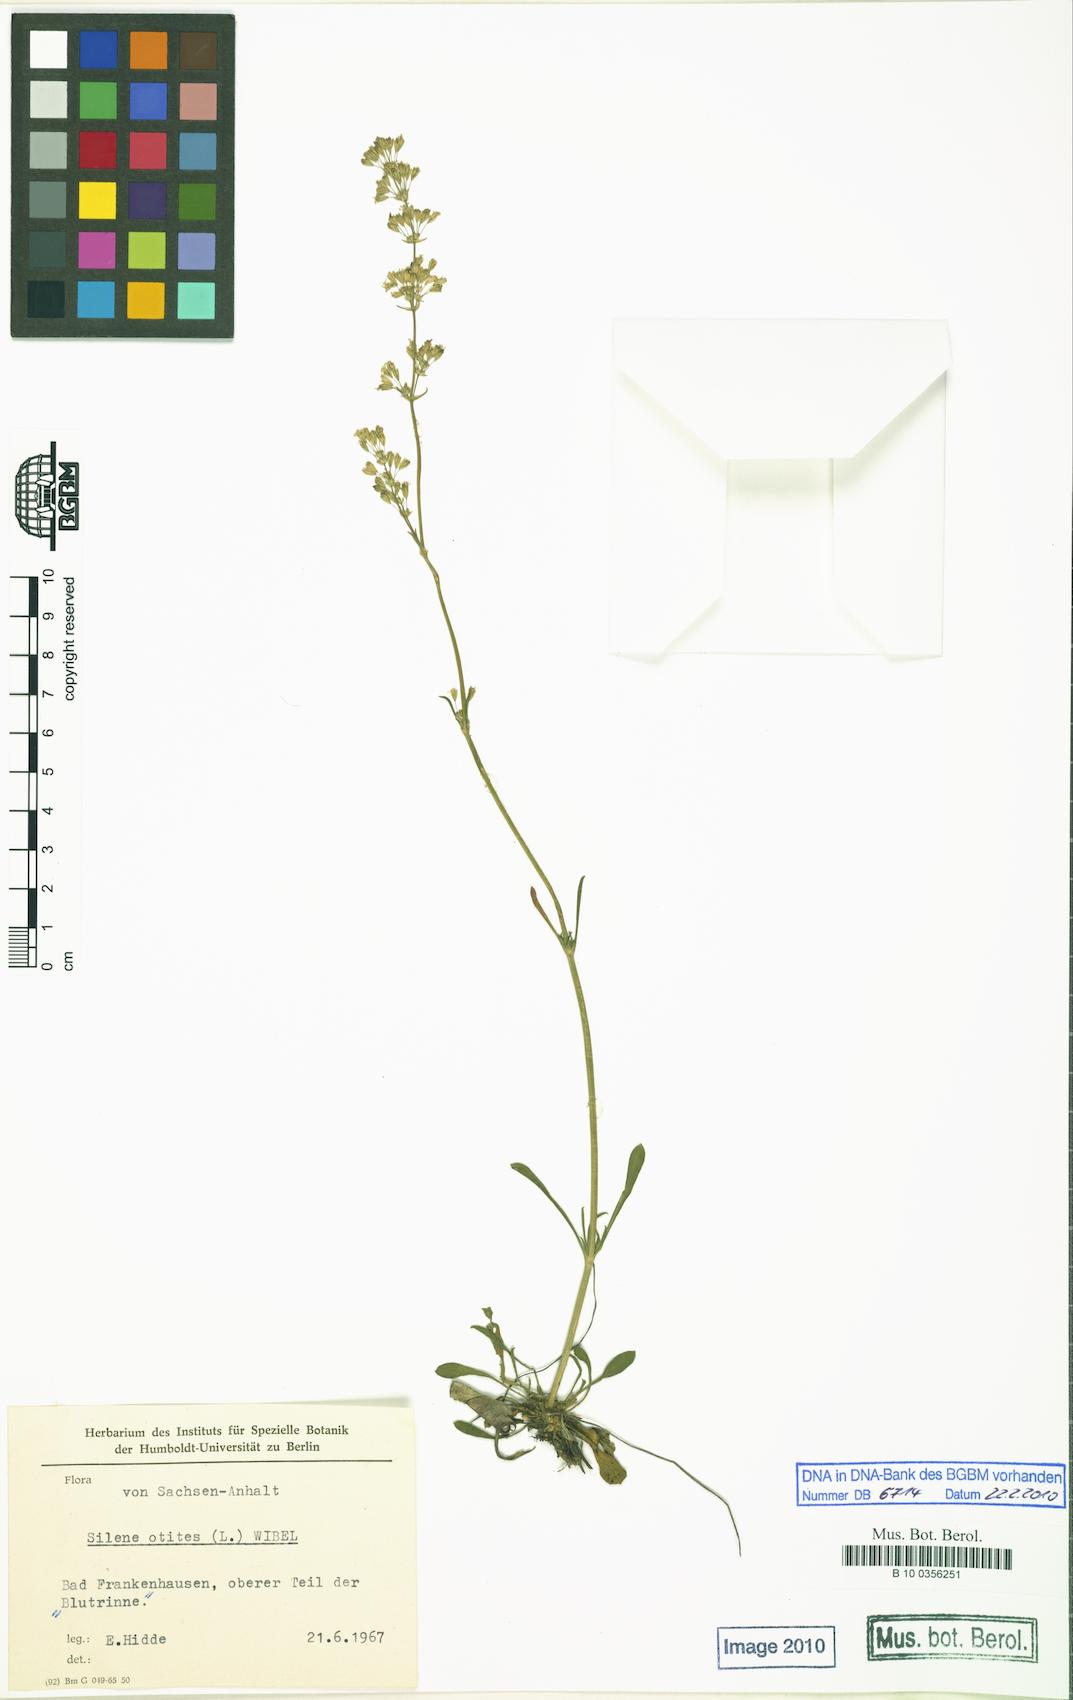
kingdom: Plantae
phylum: Tracheophyta
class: Magnoliopsida
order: Caryophyllales
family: Caryophyllaceae
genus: Silene
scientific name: Silene otites
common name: Spanish catchfly
